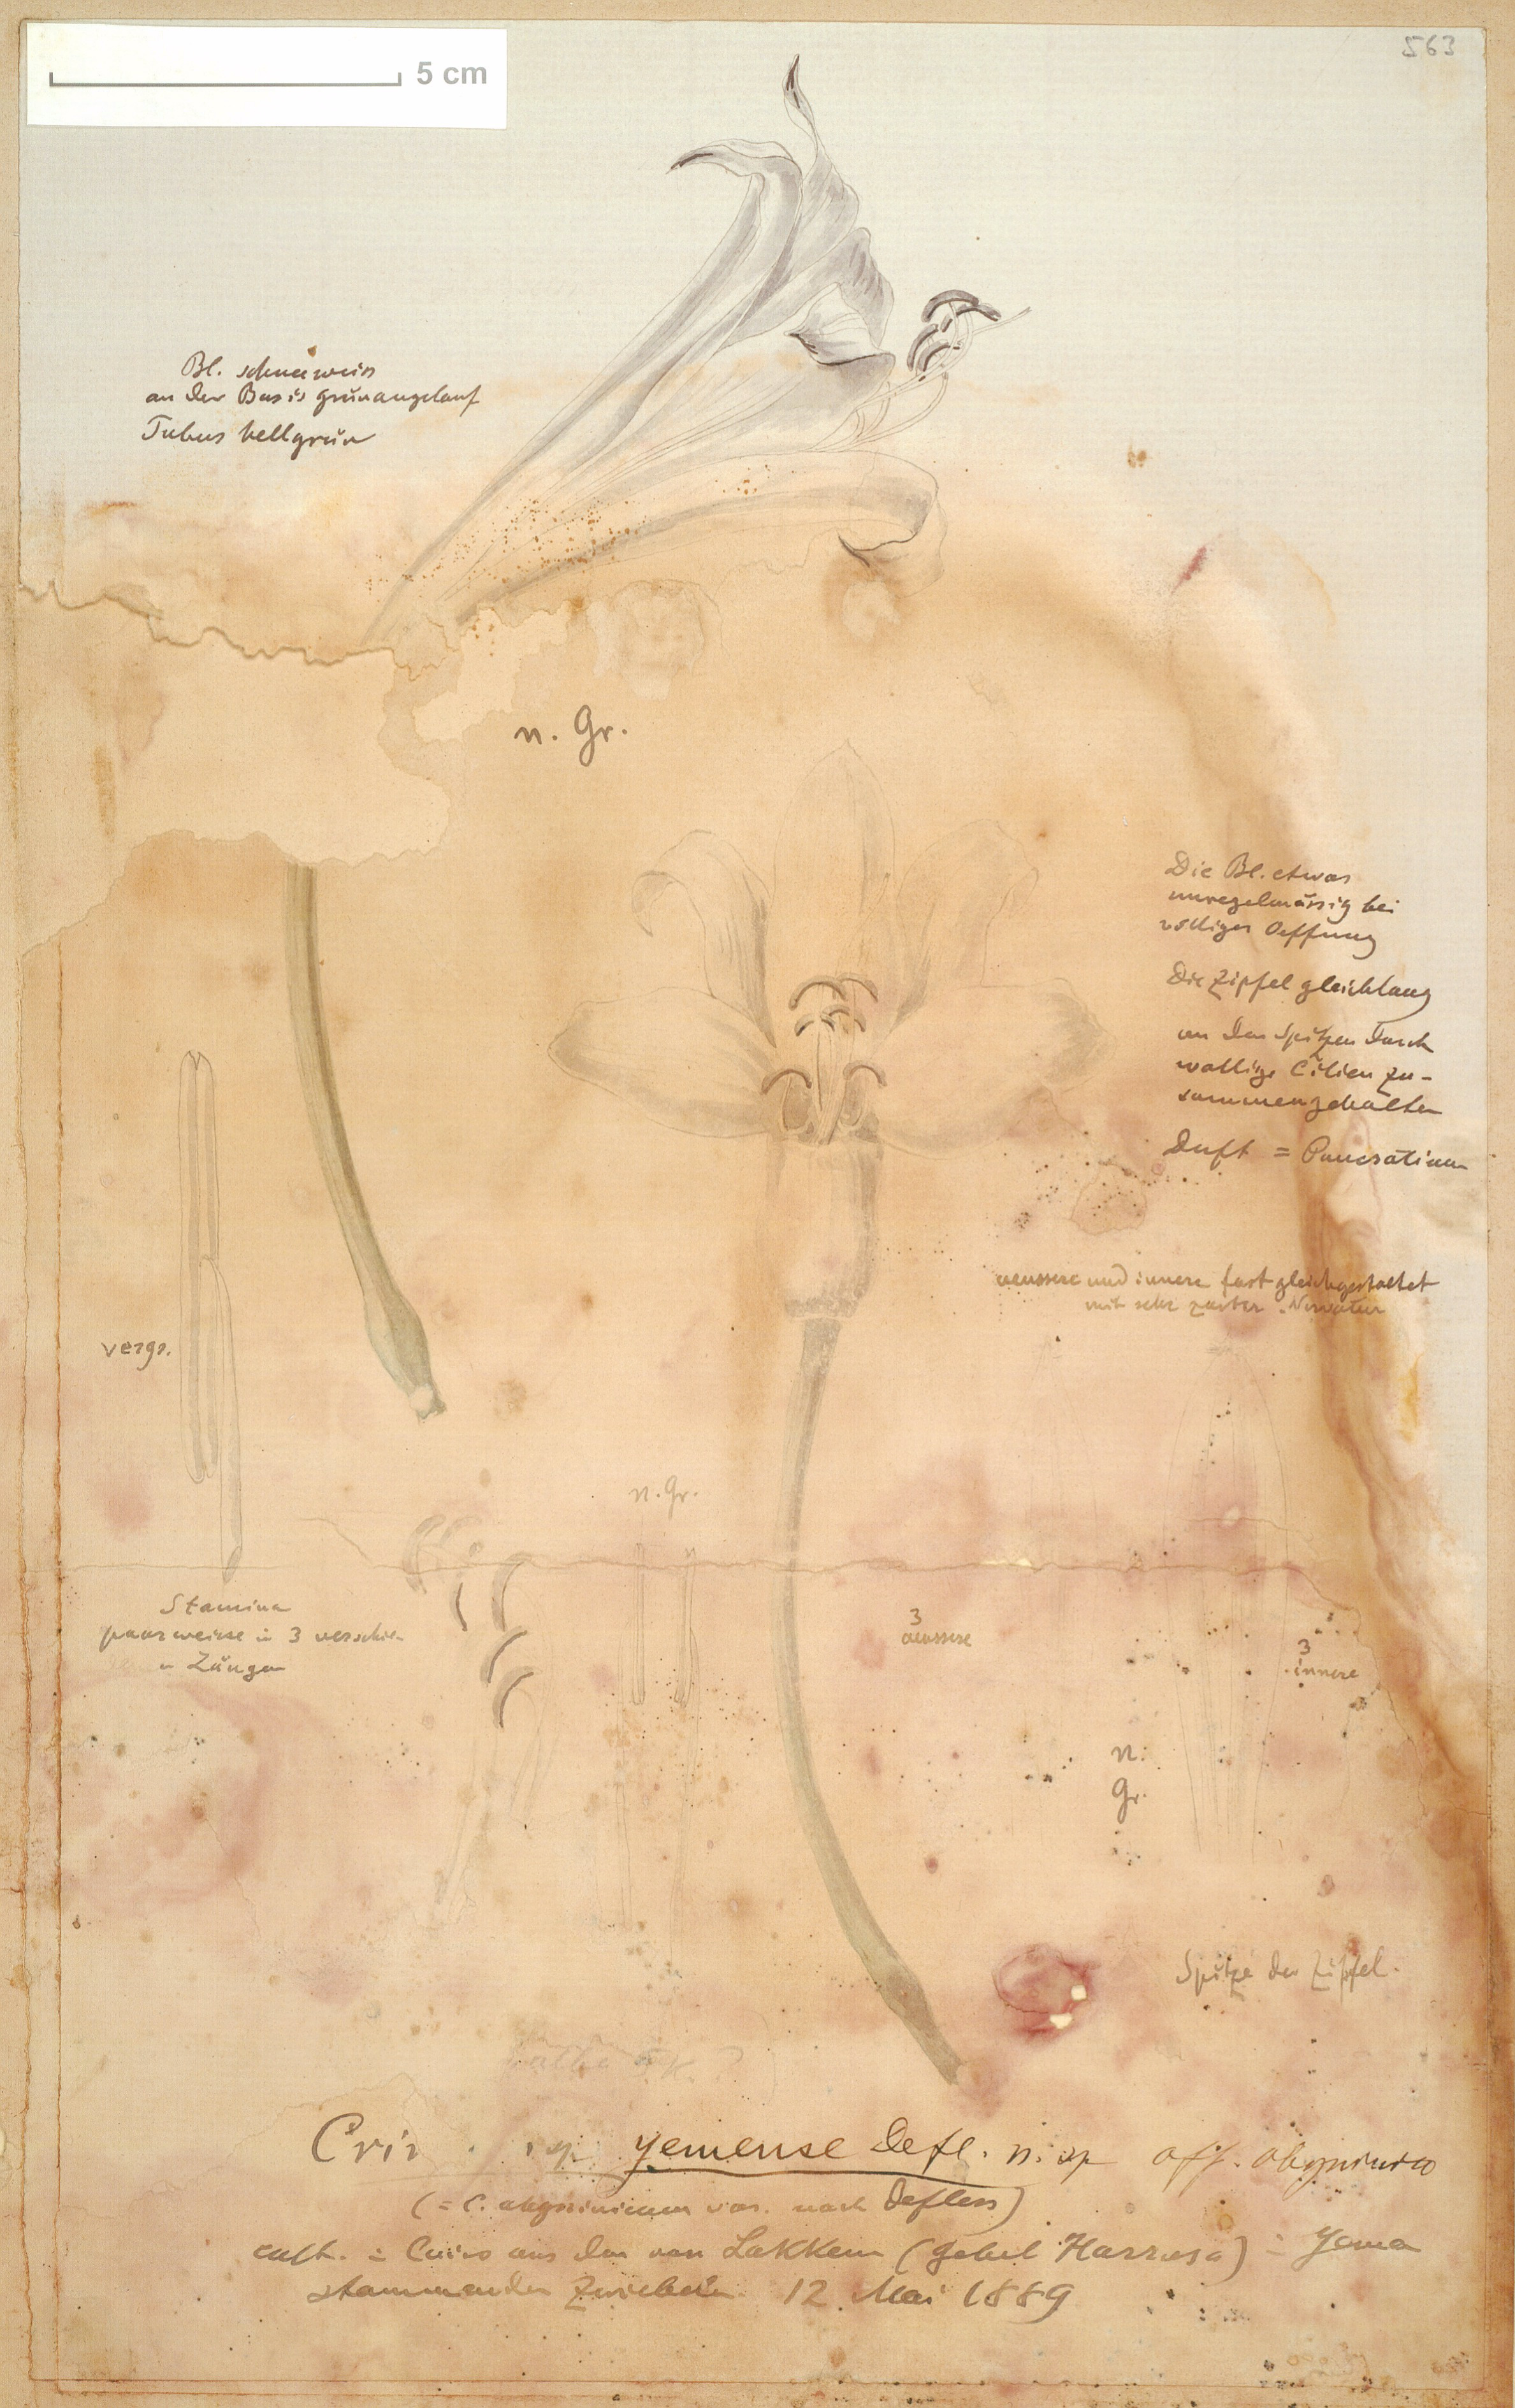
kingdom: Plantae
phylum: Tracheophyta
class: Liliopsida
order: Asparagales
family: Amaryllidaceae
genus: Crinum
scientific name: Crinum album
